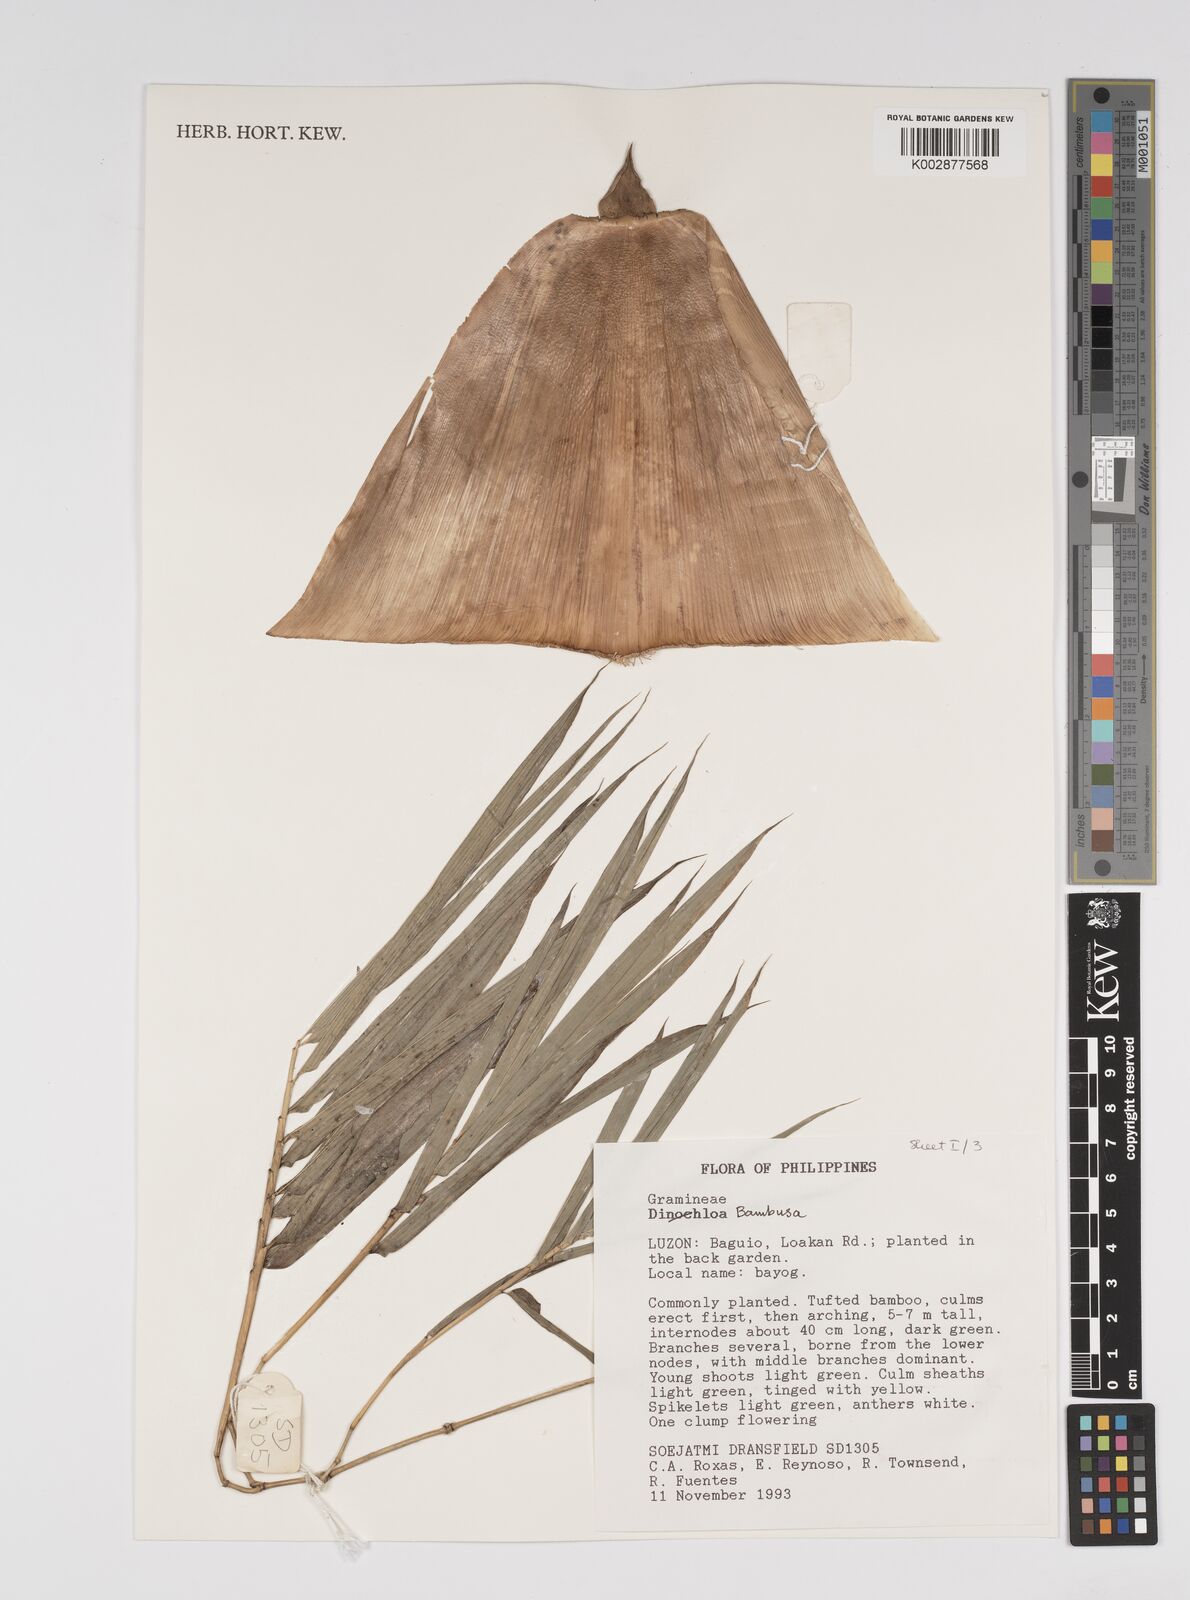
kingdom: Plantae
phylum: Tracheophyta
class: Liliopsida
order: Poales
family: Poaceae
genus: Bambusa
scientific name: Bambusa
